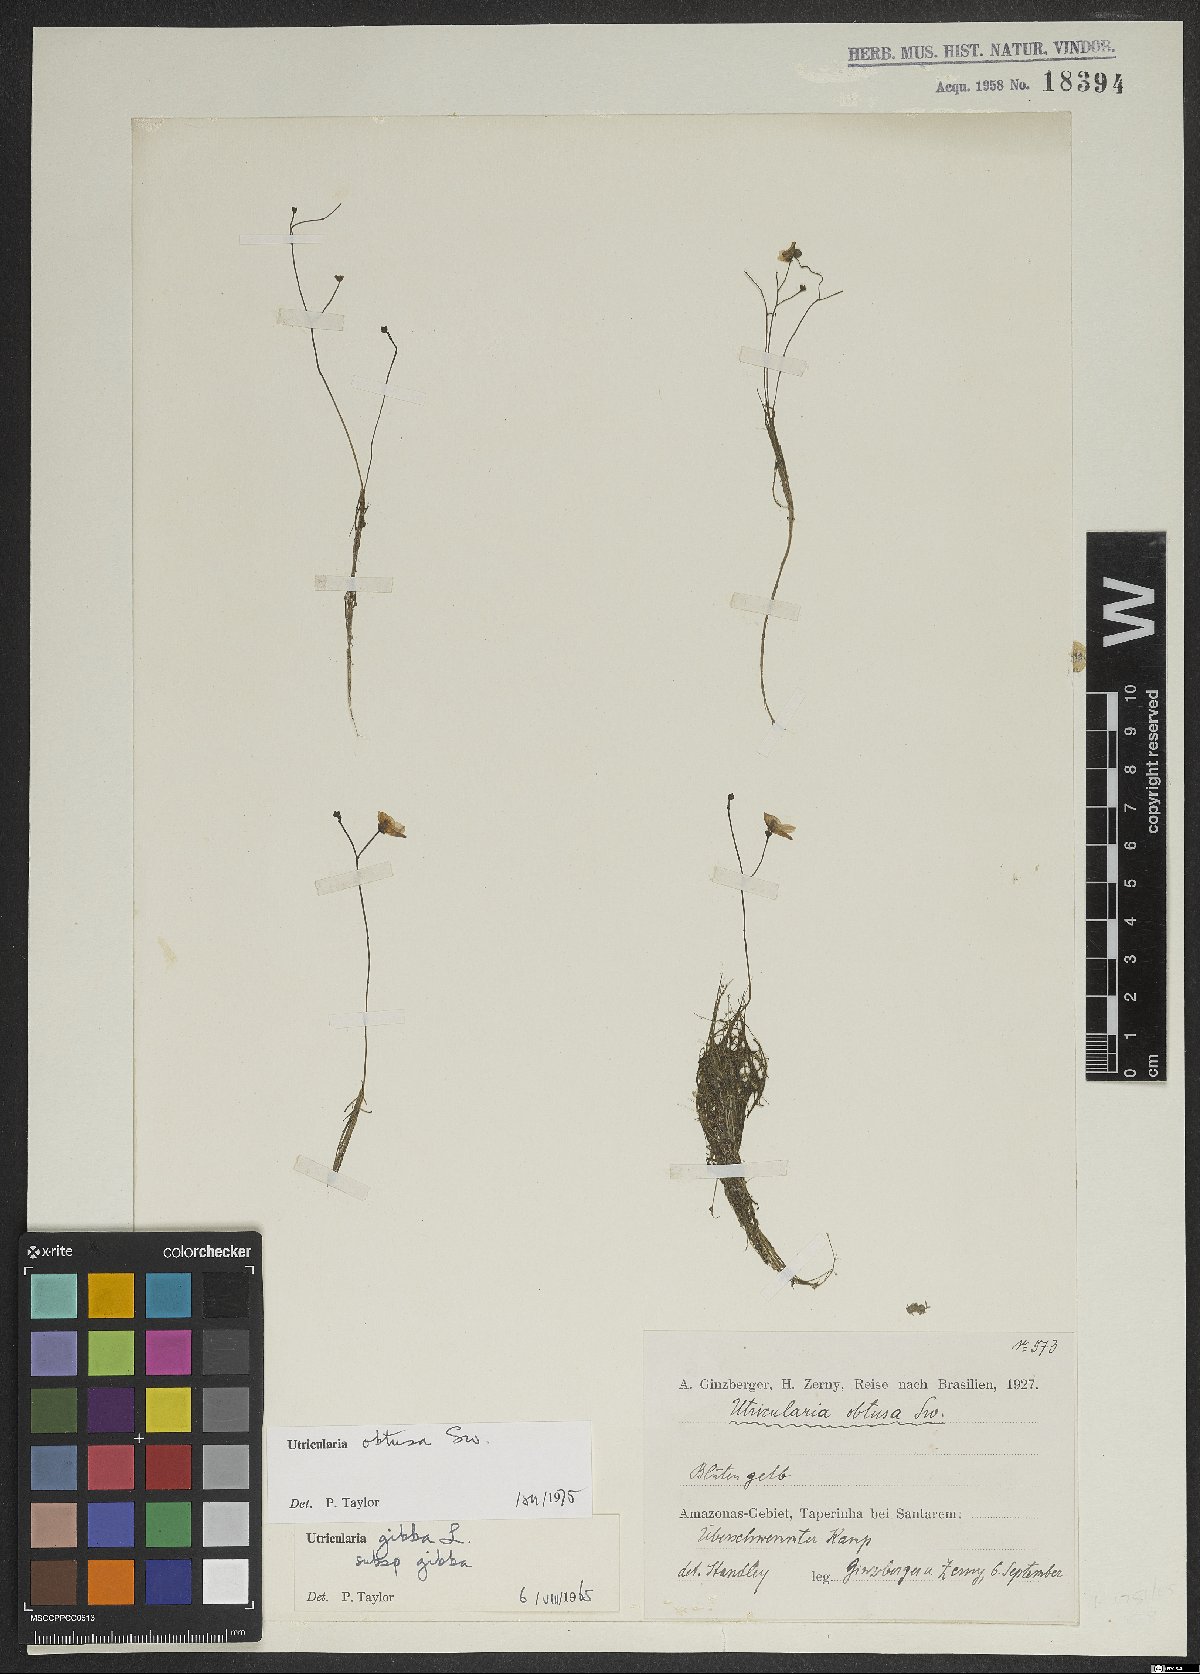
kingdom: Plantae
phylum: Tracheophyta
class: Magnoliopsida
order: Lamiales
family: Lentibulariaceae
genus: Utricularia
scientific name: Utricularia gibba
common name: Humped bladderwort
